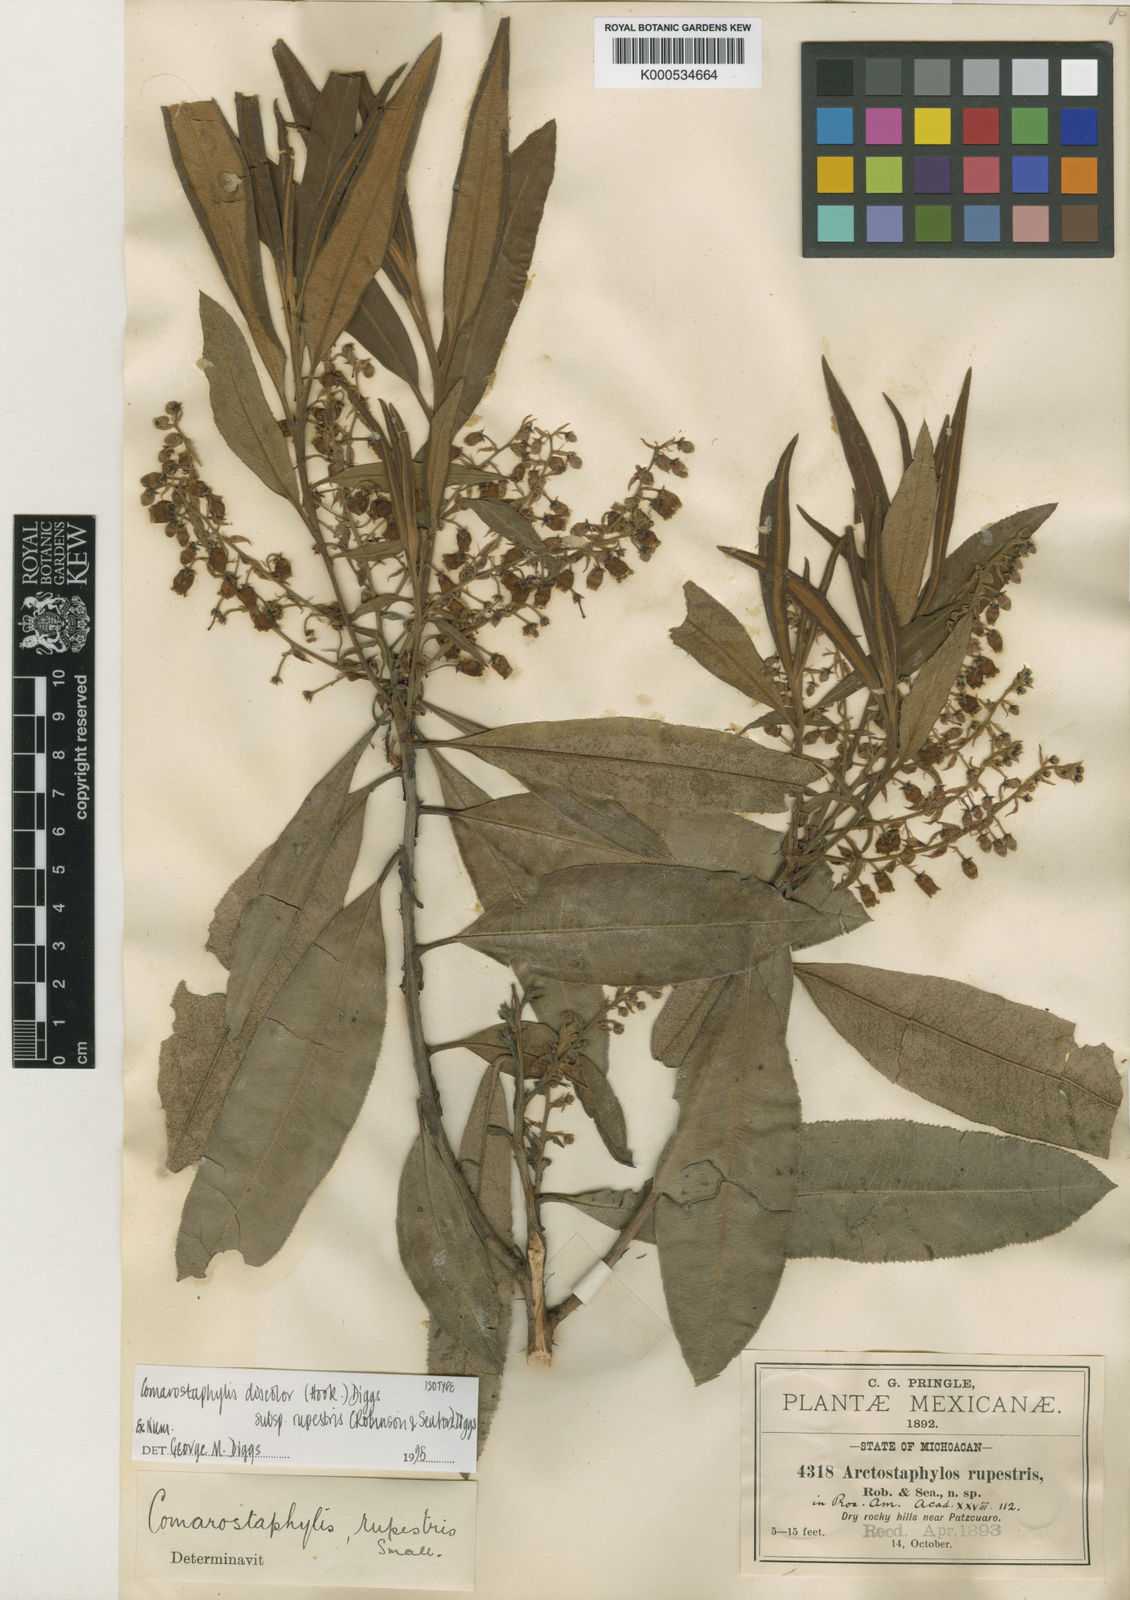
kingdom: Plantae
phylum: Tracheophyta
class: Magnoliopsida
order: Ericales
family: Ericaceae
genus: Comarostaphylis
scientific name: Comarostaphylis discolor
